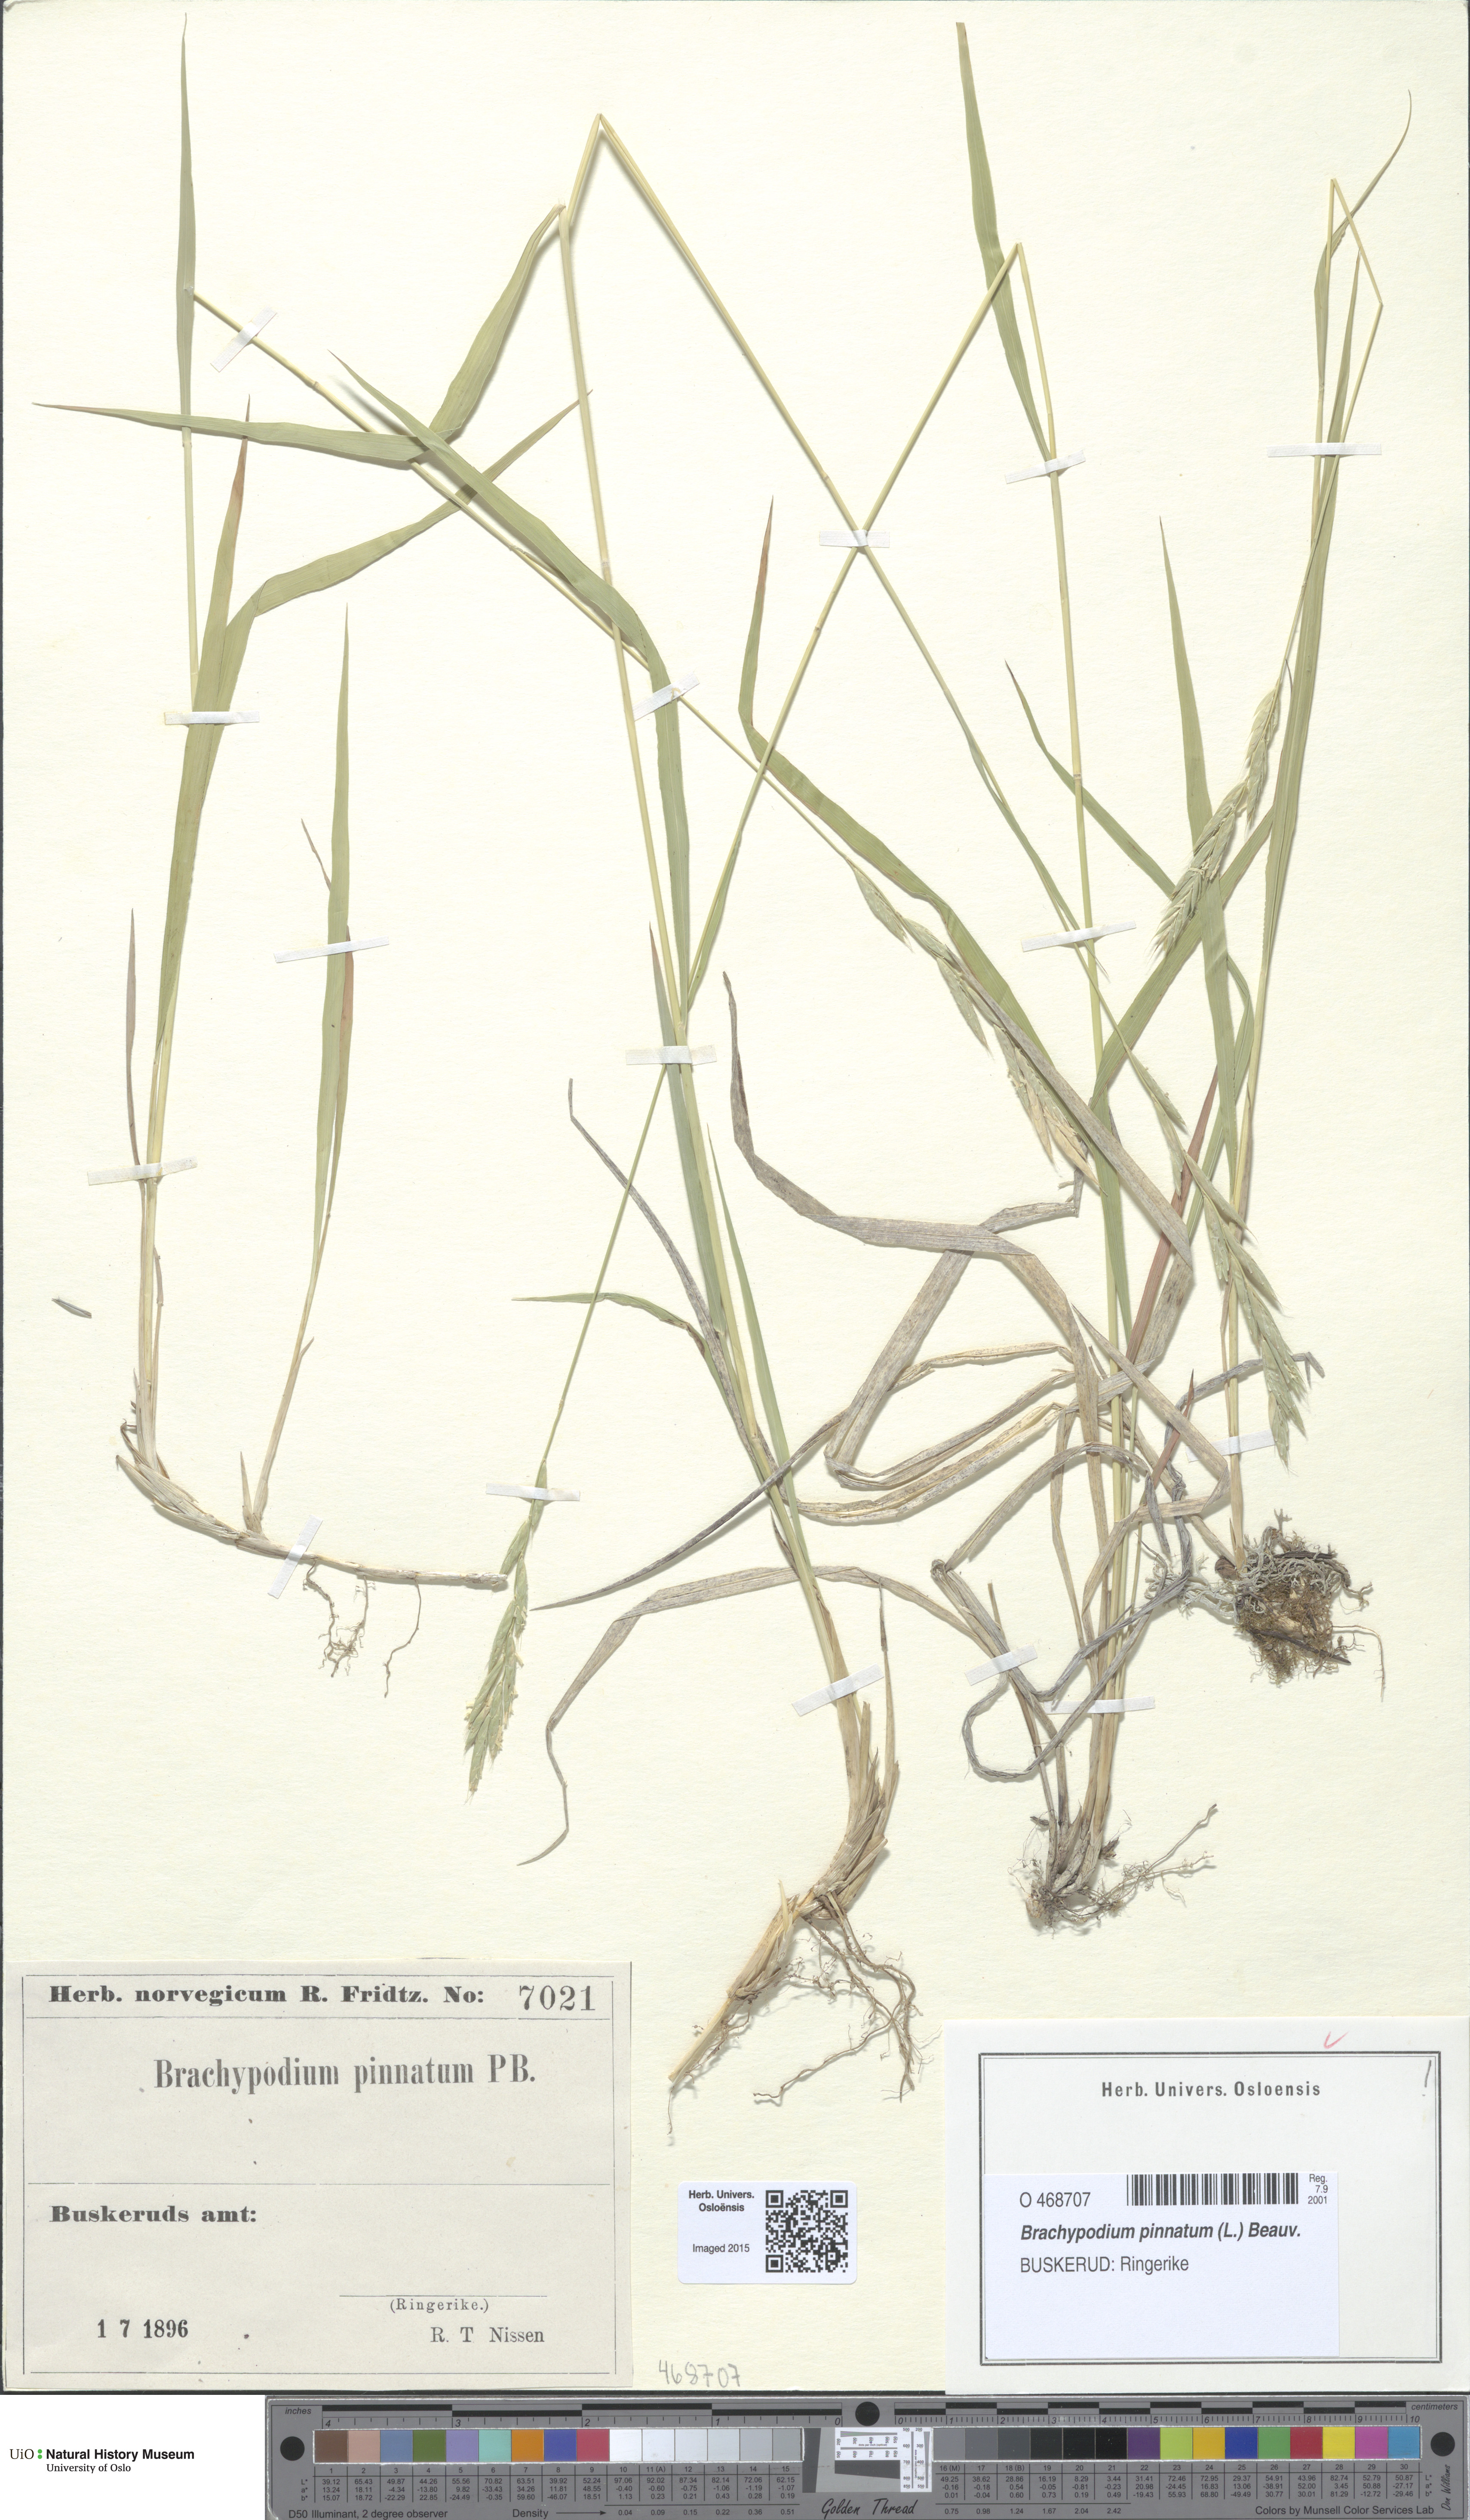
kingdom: Plantae
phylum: Tracheophyta
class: Liliopsida
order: Poales
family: Poaceae
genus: Brachypodium
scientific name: Brachypodium pinnatum
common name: Tor grass
